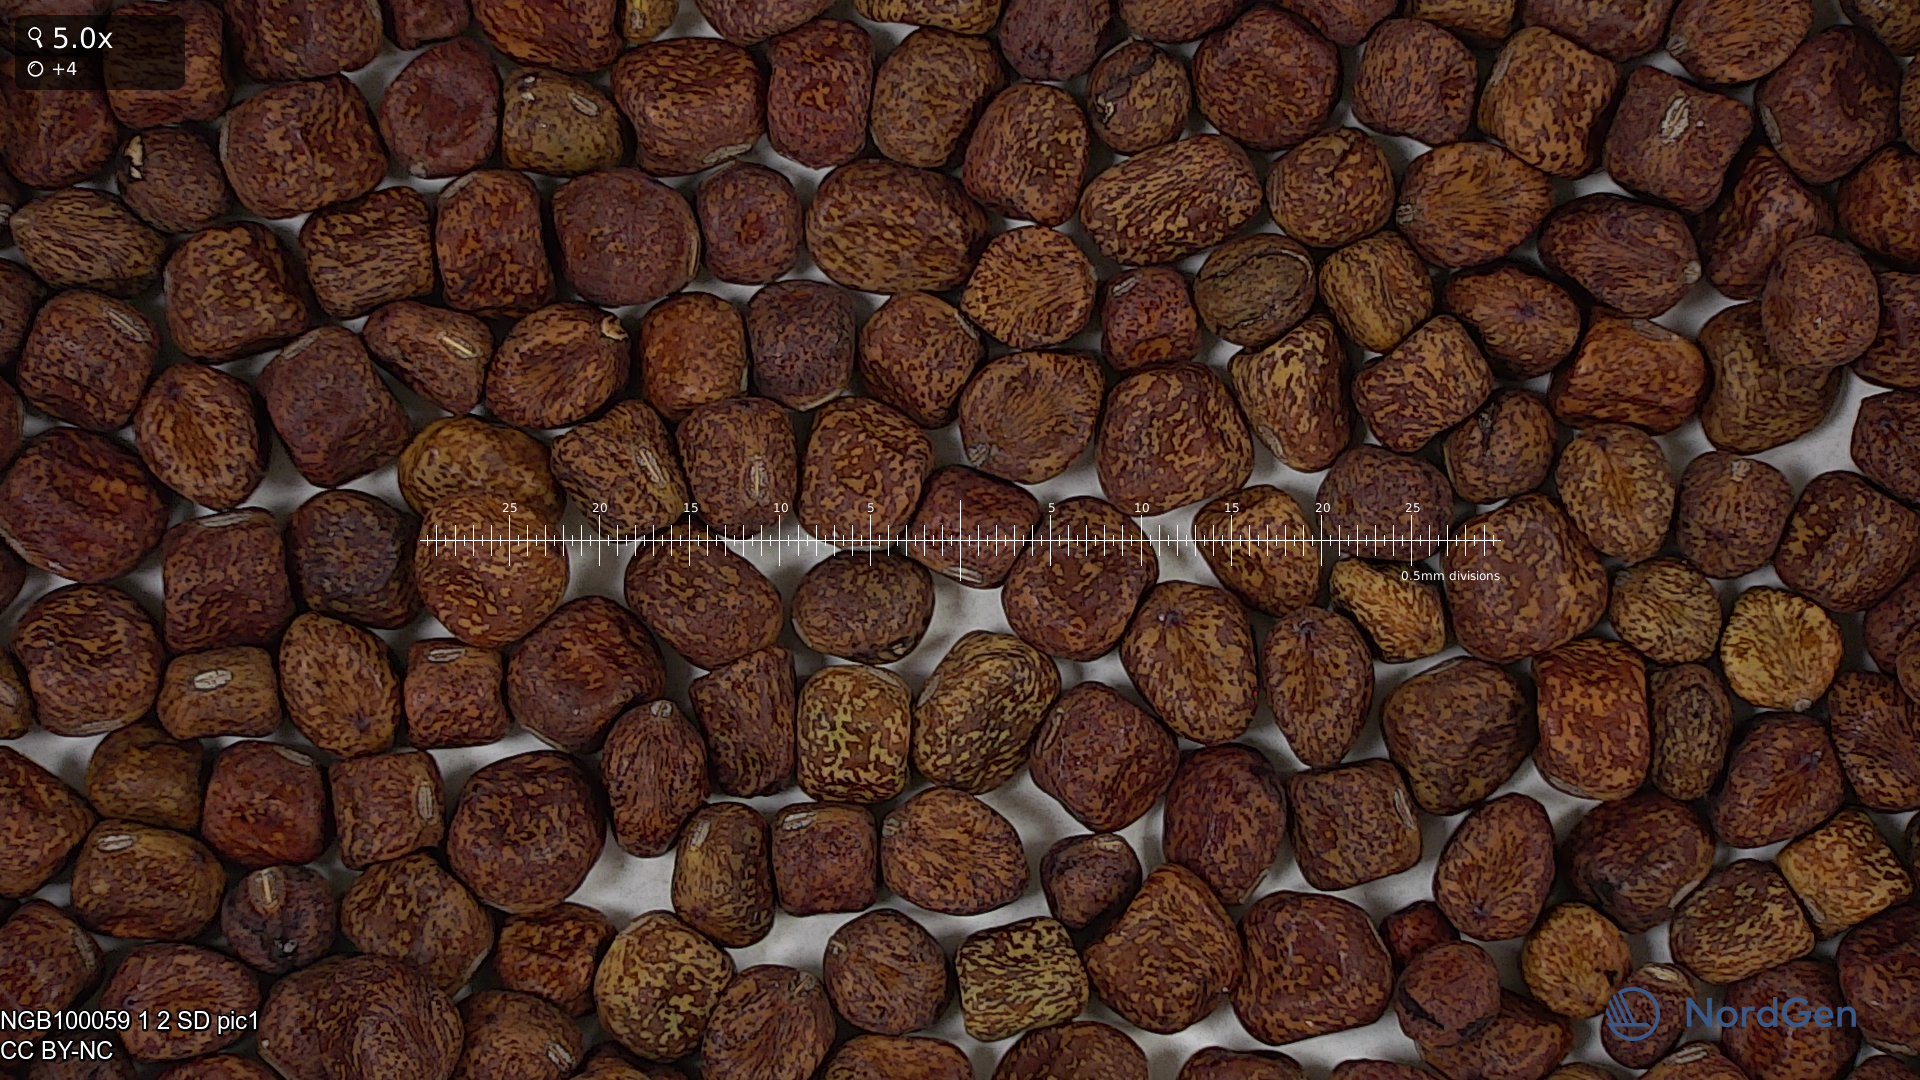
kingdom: Plantae
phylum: Tracheophyta
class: Magnoliopsida
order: Fabales
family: Fabaceae
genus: Lathyrus
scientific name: Lathyrus oleraceus
